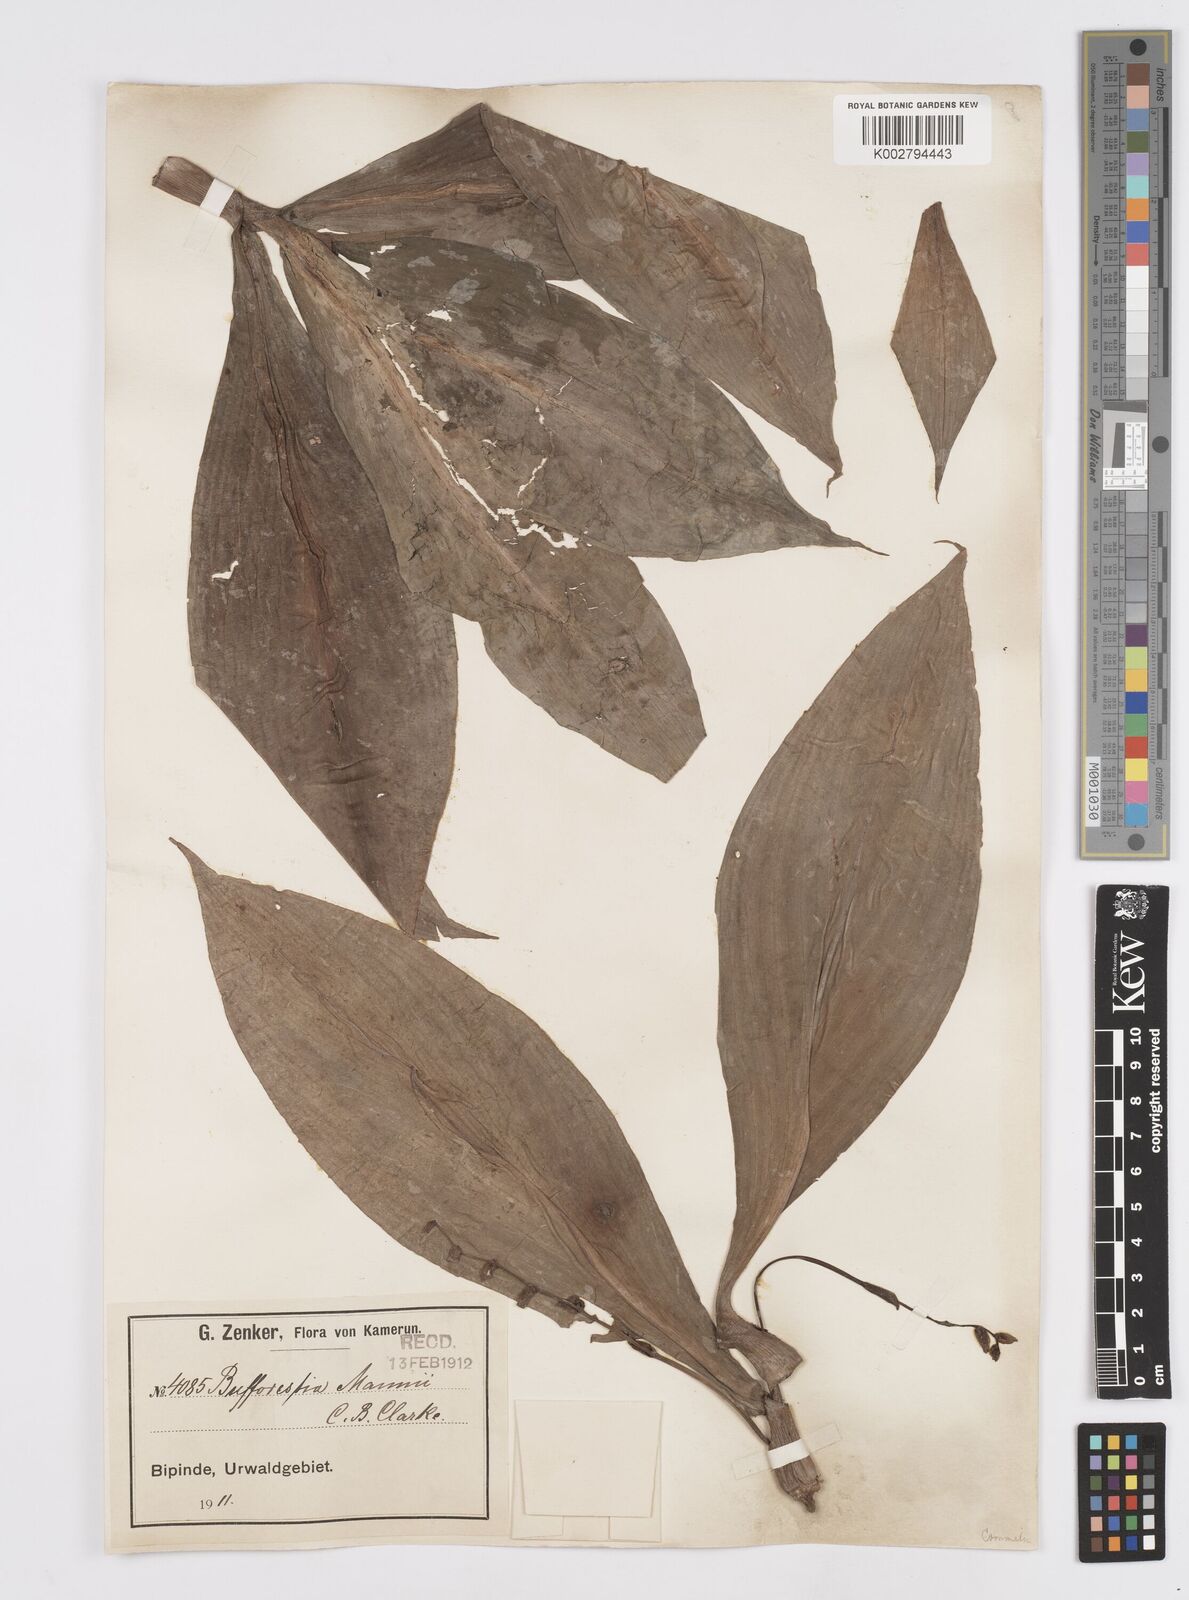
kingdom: Plantae
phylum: Tracheophyta
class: Liliopsida
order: Commelinales
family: Commelinaceae
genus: Buforrestia
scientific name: Buforrestia mannii
